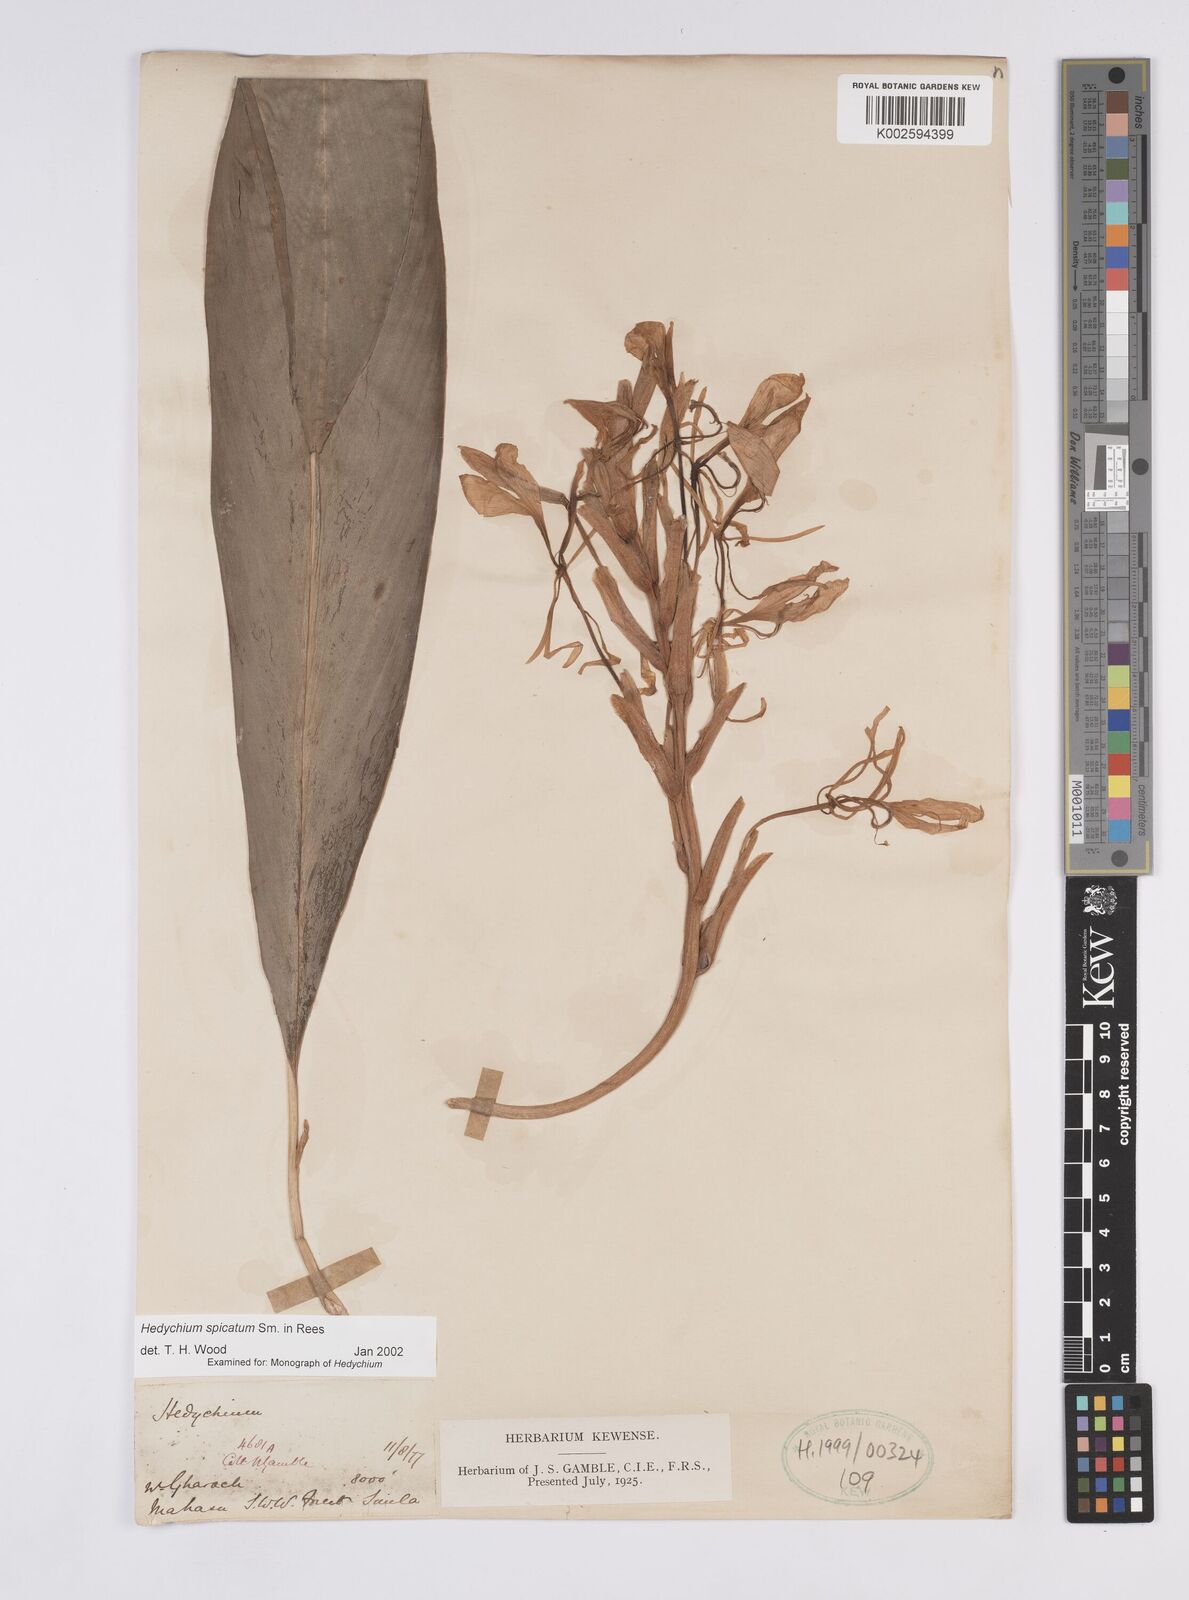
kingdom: Plantae
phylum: Tracheophyta
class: Liliopsida
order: Zingiberales
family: Zingiberaceae
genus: Hedychium
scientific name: Hedychium spicatum
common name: Spiked ginger-lily
